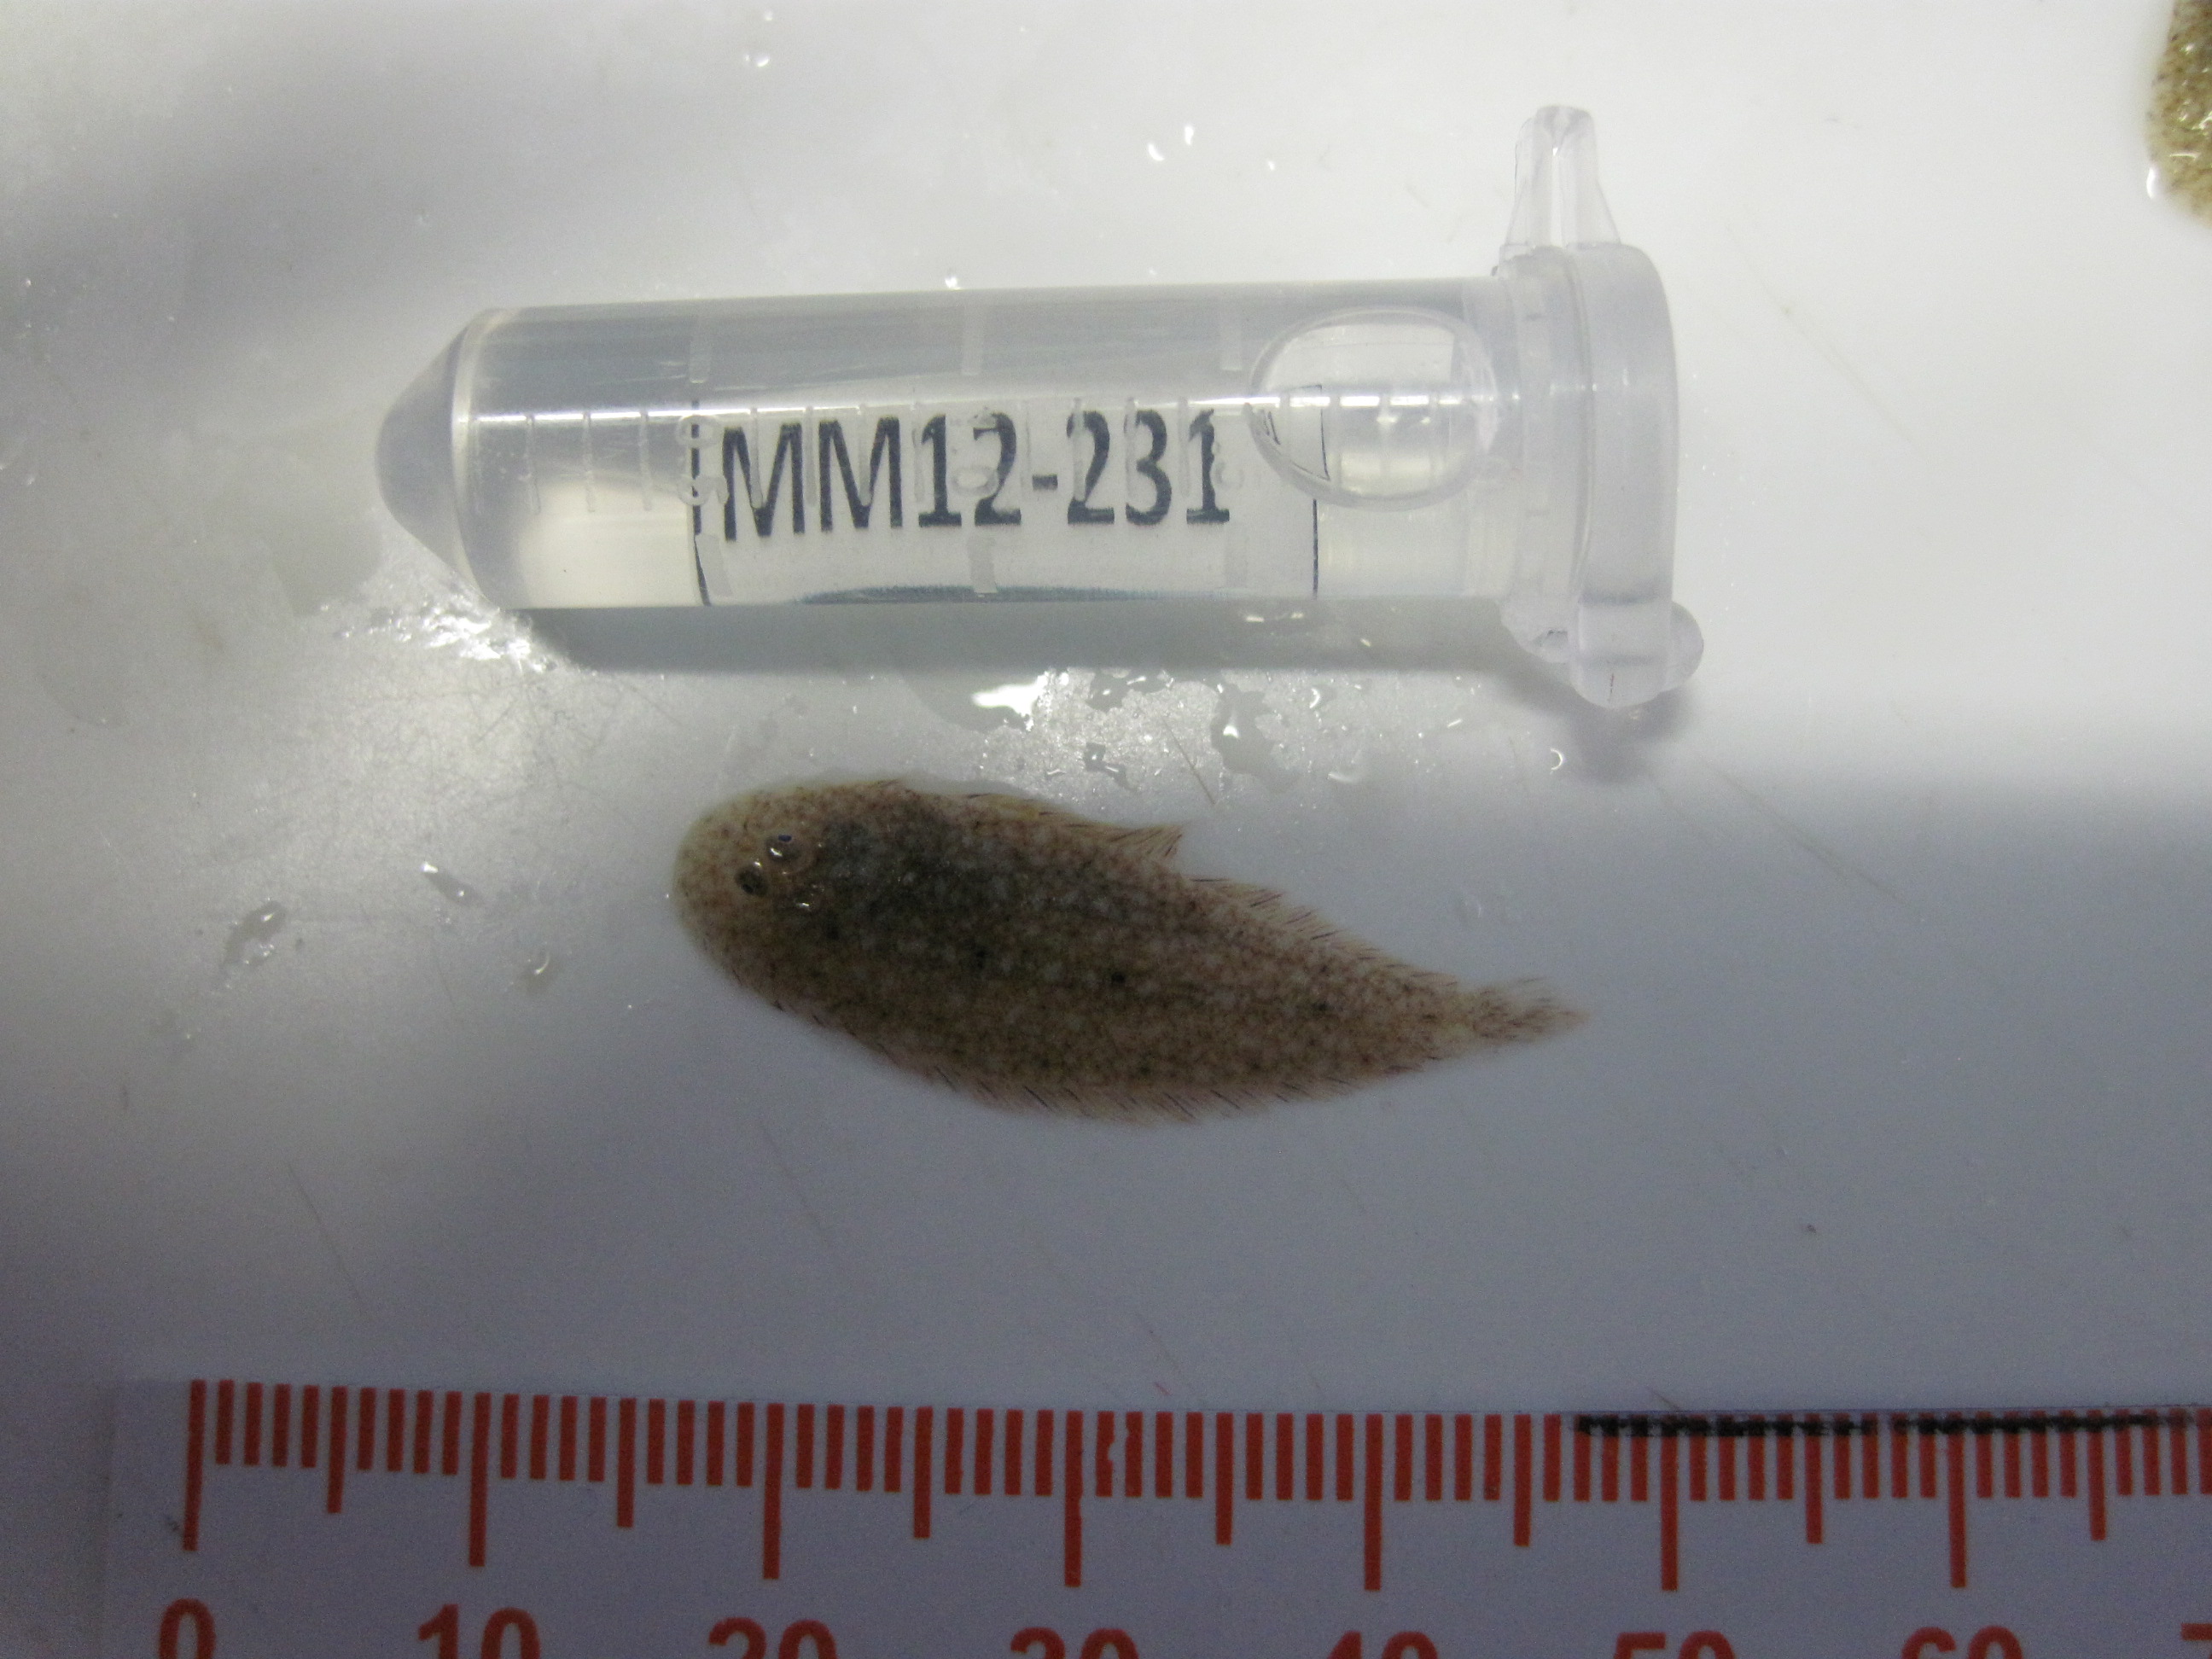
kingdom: Animalia
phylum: Chordata
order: Perciformes
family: Gobiidae
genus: Caffrogobius
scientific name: Caffrogobius
